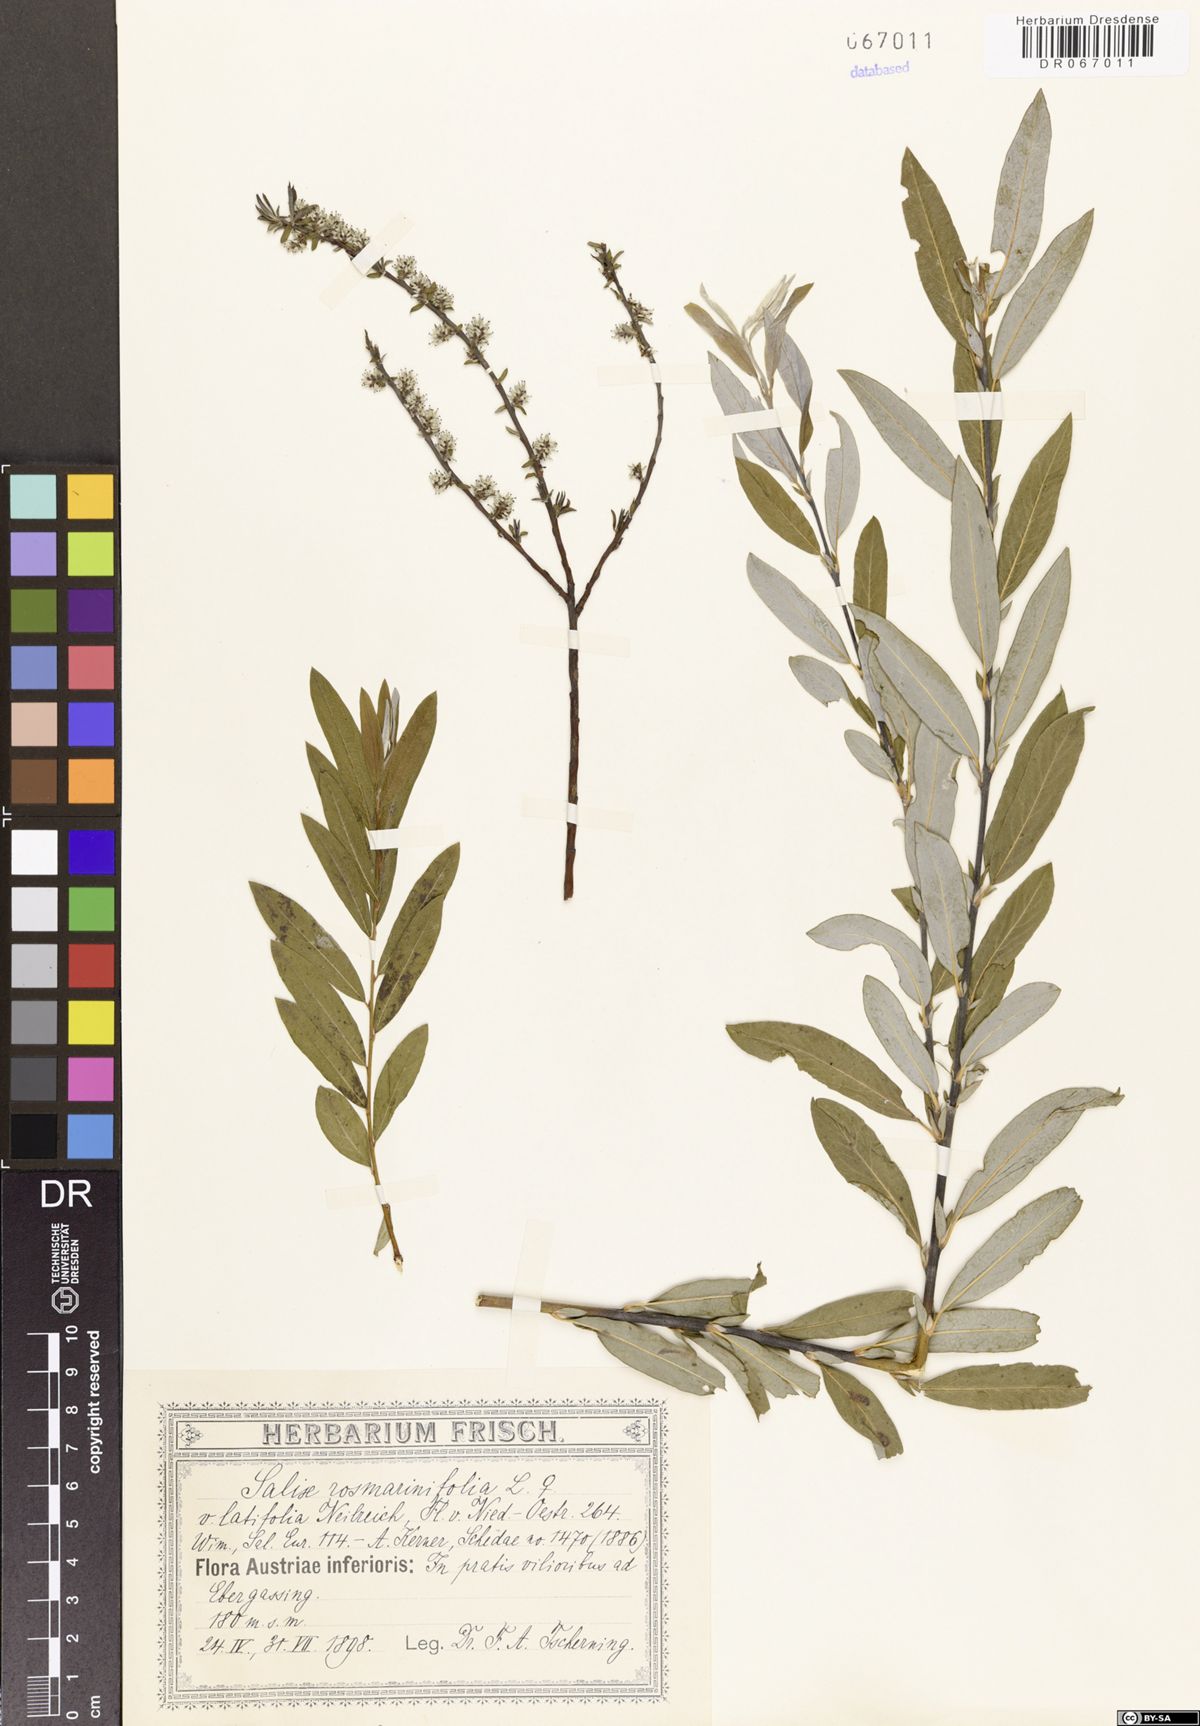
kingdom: Plantae
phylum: Tracheophyta
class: Magnoliopsida
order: Malpighiales
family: Salicaceae
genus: Salix
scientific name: Salix rosmarinifolia
